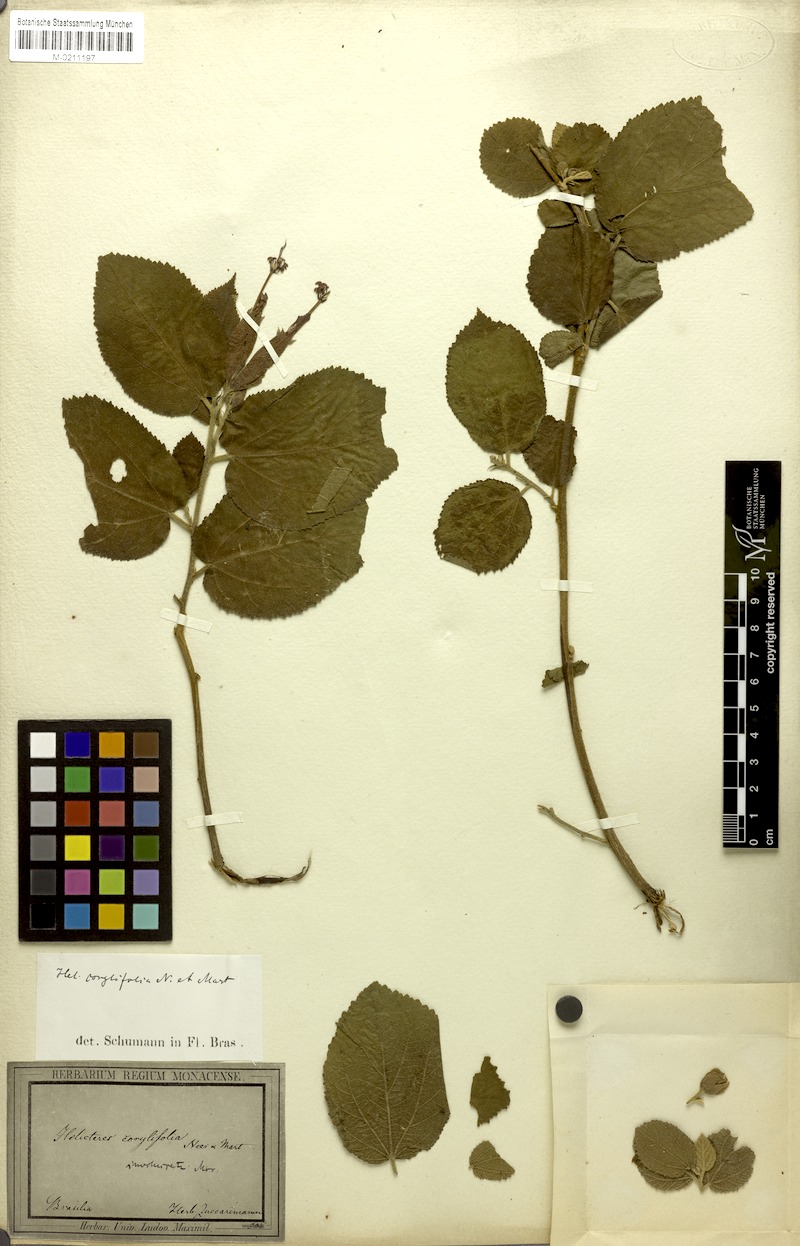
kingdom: Plantae
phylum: Tracheophyta
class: Magnoliopsida
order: Malvales
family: Malvaceae
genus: Helicteres
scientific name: Helicteres corylifolia
